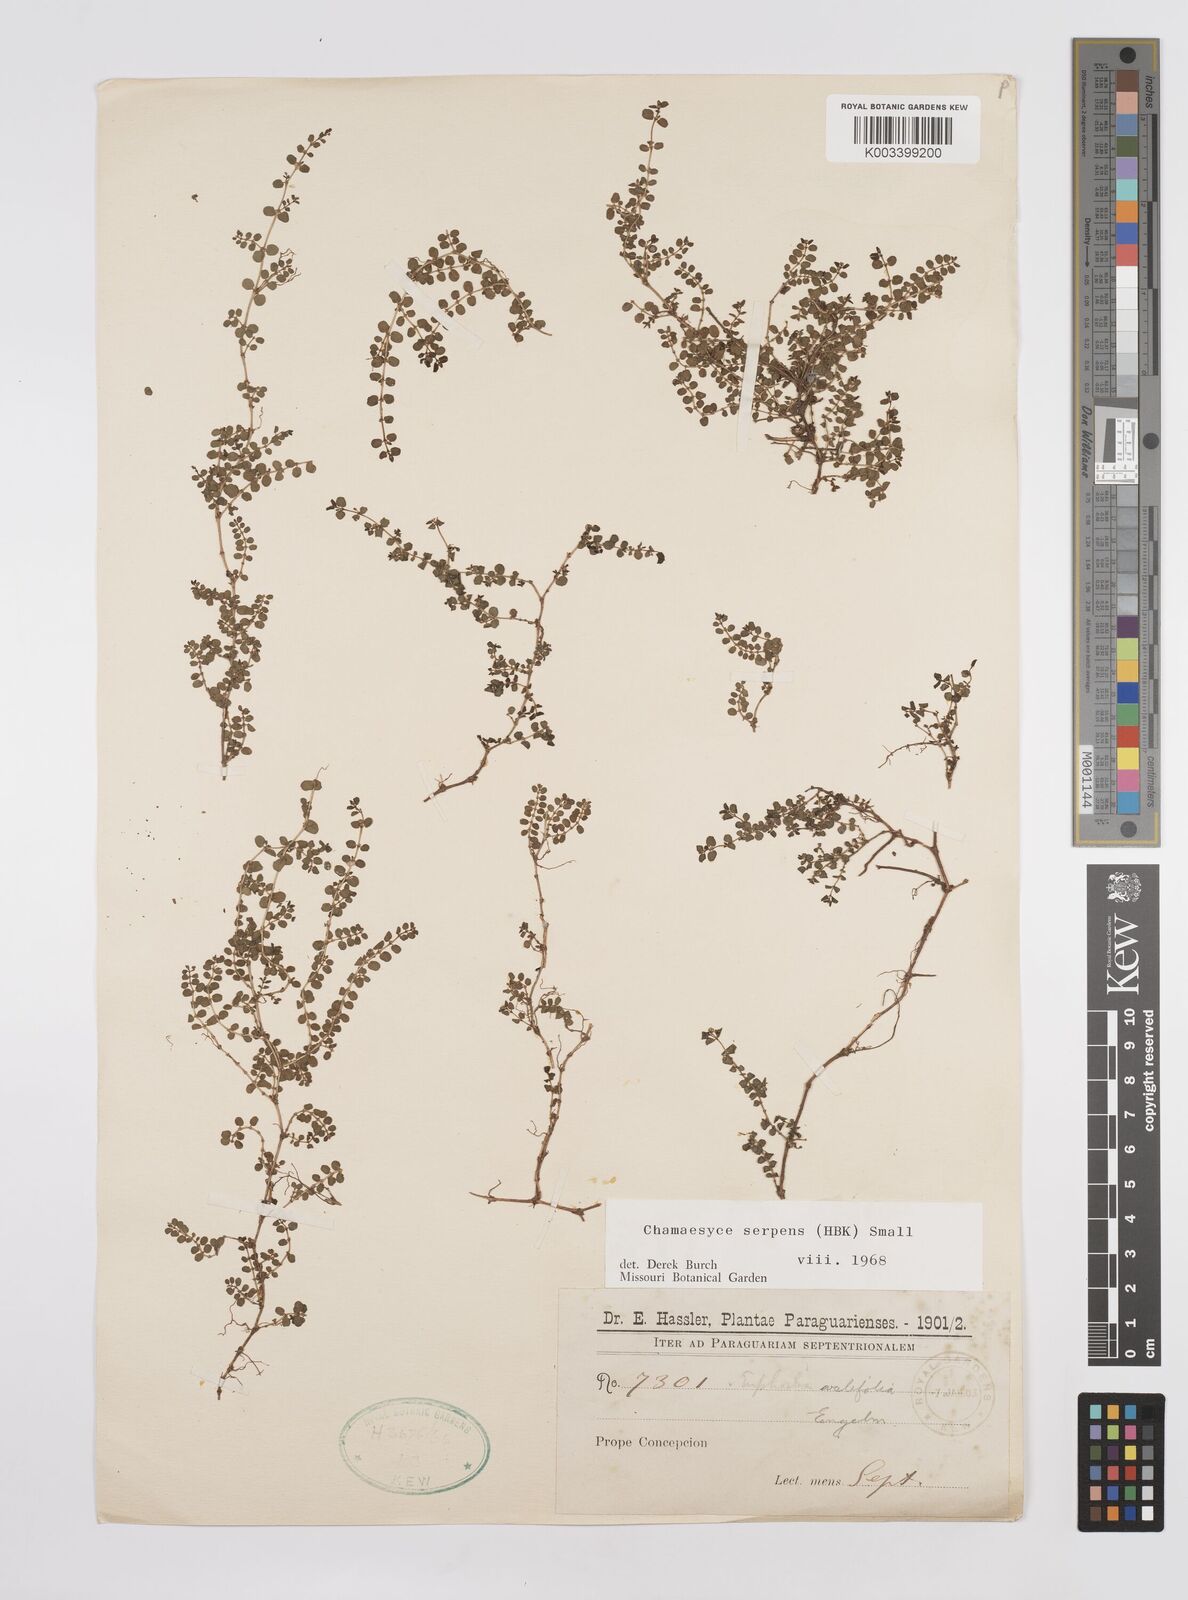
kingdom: Plantae
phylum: Tracheophyta
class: Magnoliopsida
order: Malpighiales
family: Euphorbiaceae
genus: Euphorbia
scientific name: Euphorbia serpens
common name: Matted sandmat
